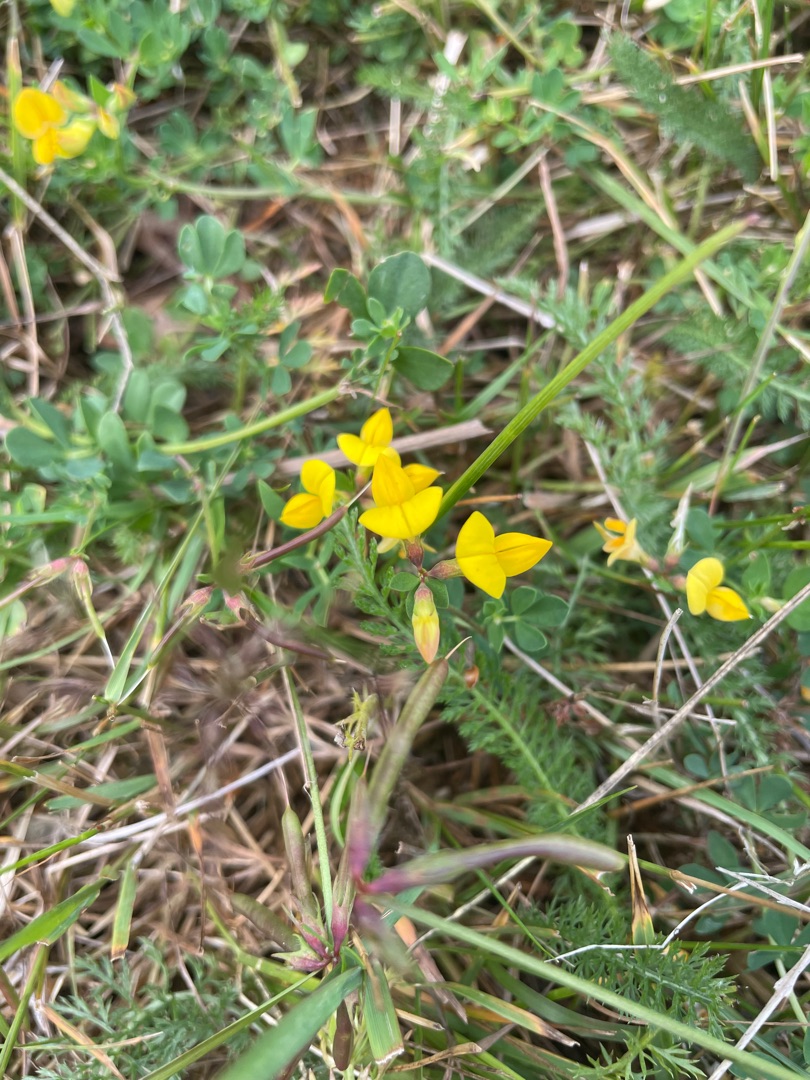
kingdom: Plantae
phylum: Tracheophyta
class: Magnoliopsida
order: Fabales
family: Fabaceae
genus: Lotus
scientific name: Lotus corniculatus
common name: Almindelig kællingetand
